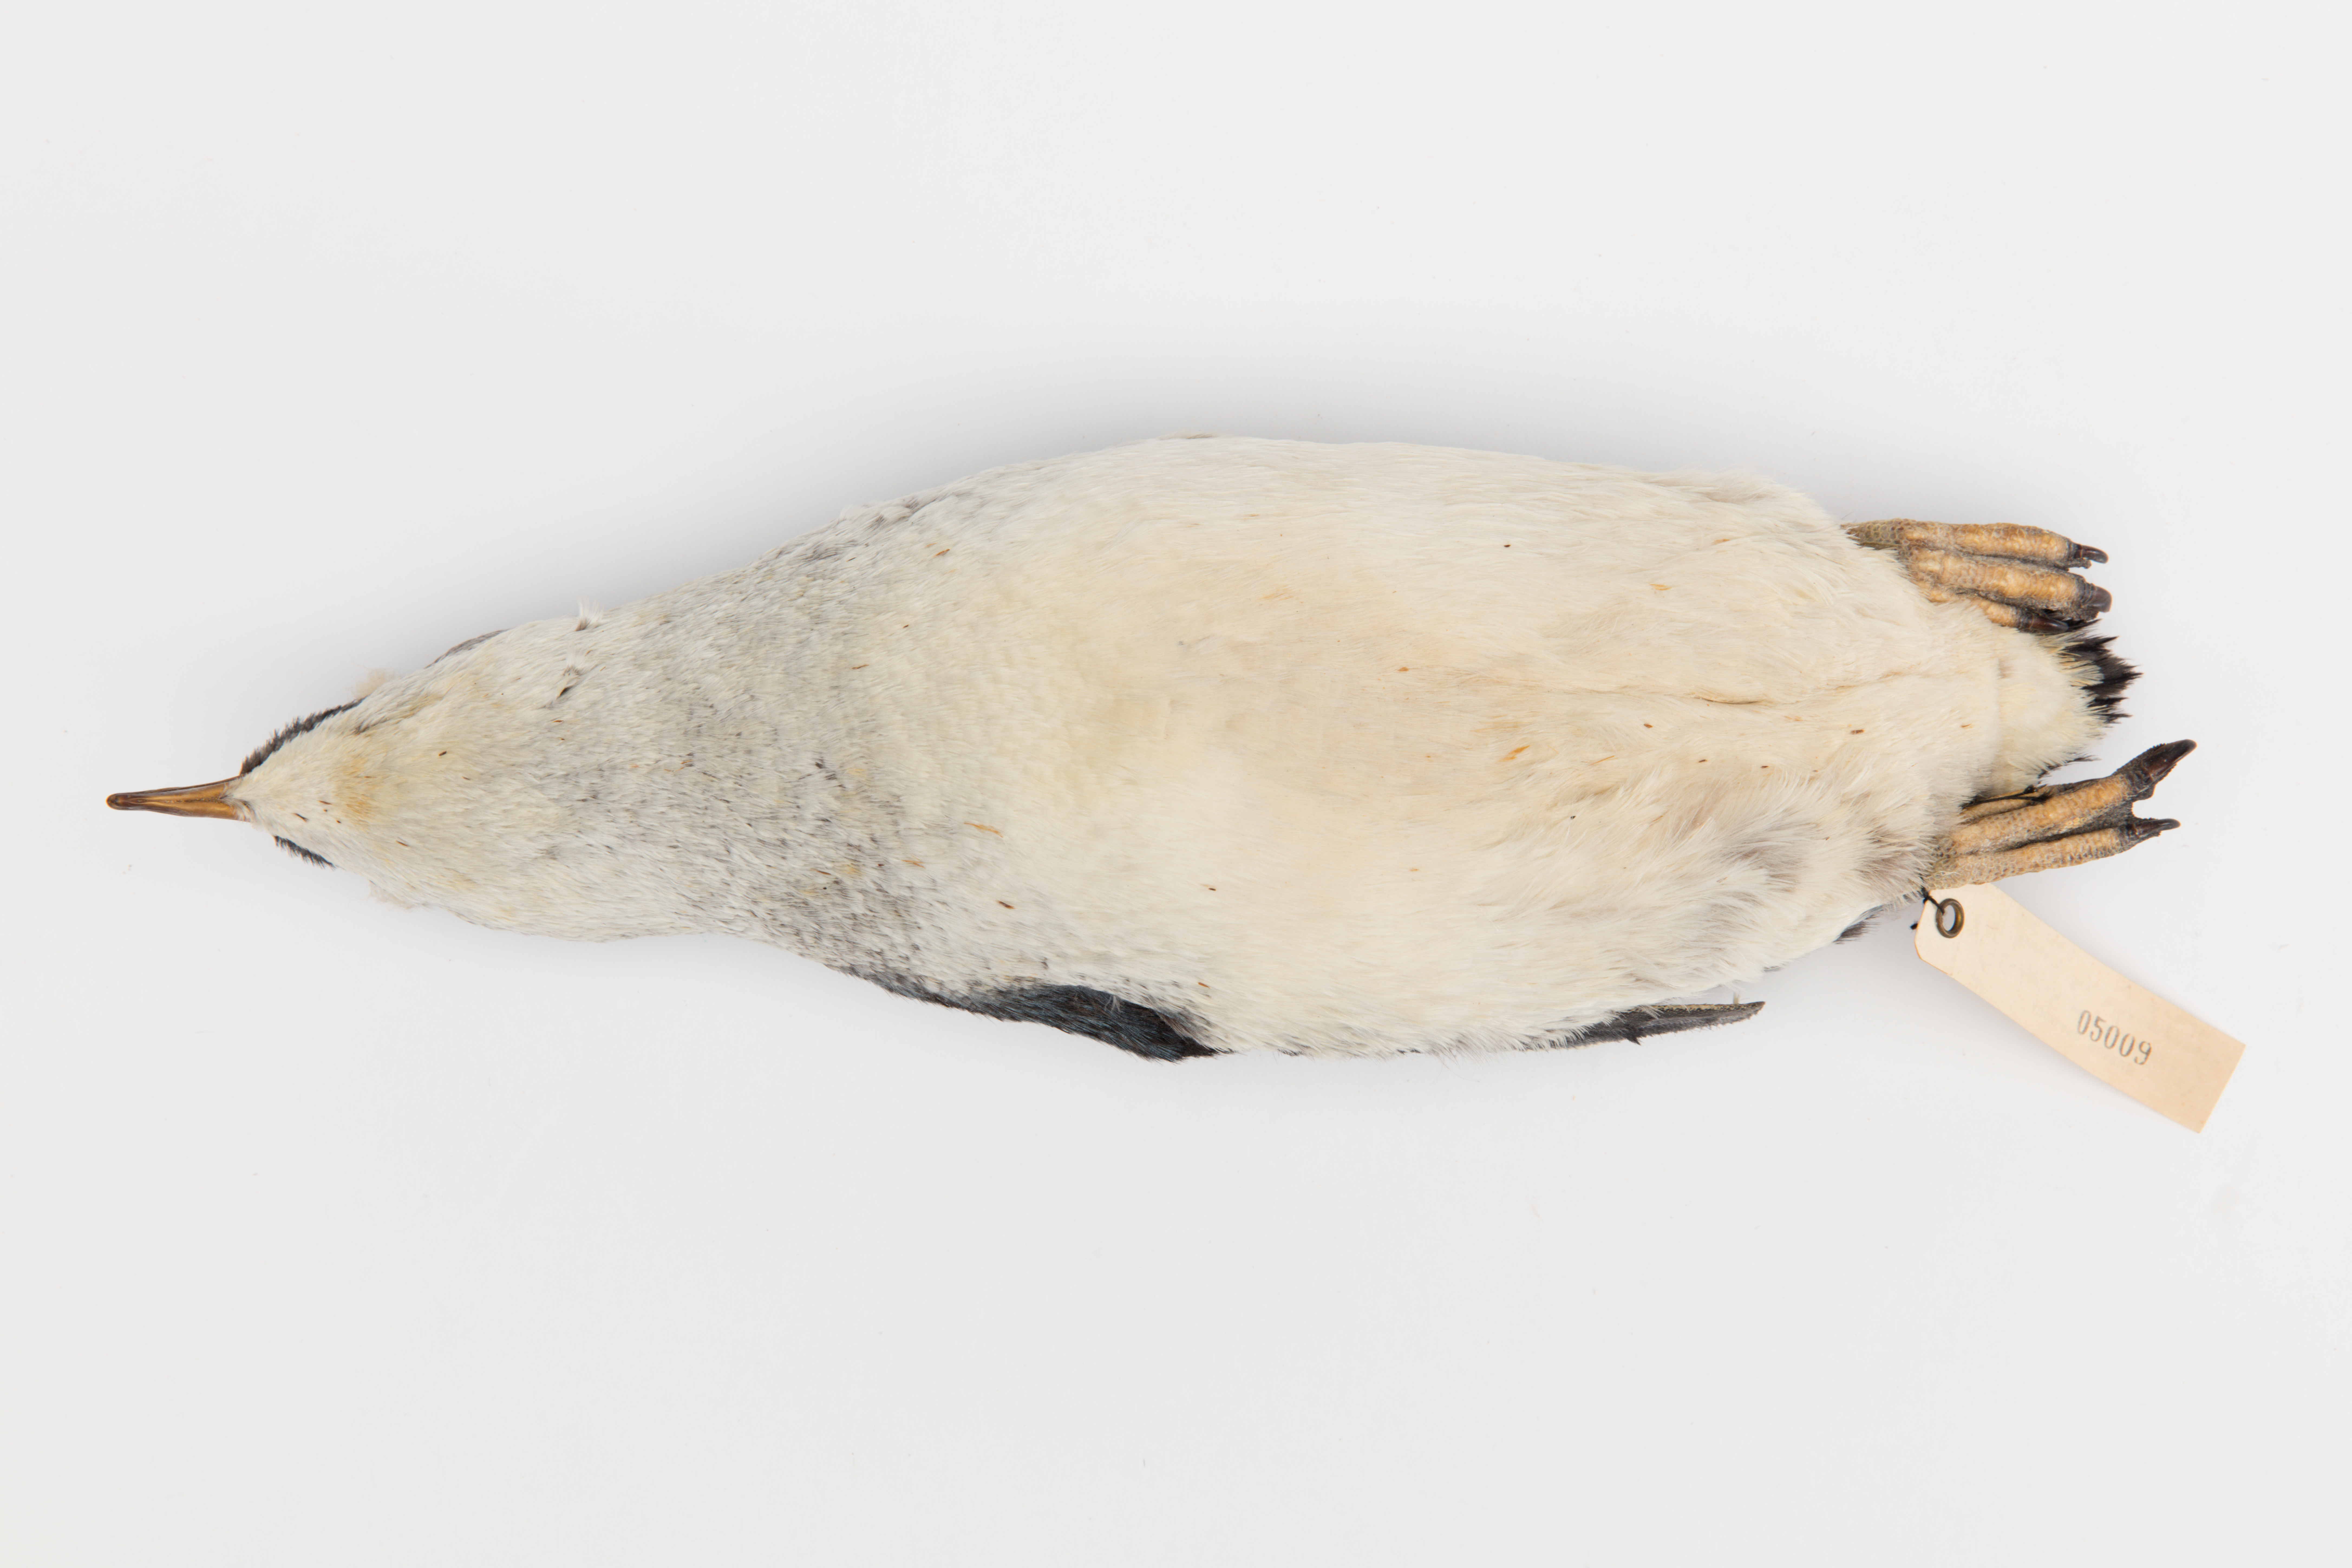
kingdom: Animalia
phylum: Chordata
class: Aves
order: Sphenisciformes
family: Spheniscidae
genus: Eudyptula
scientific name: Eudyptula minor
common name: Little penguin
